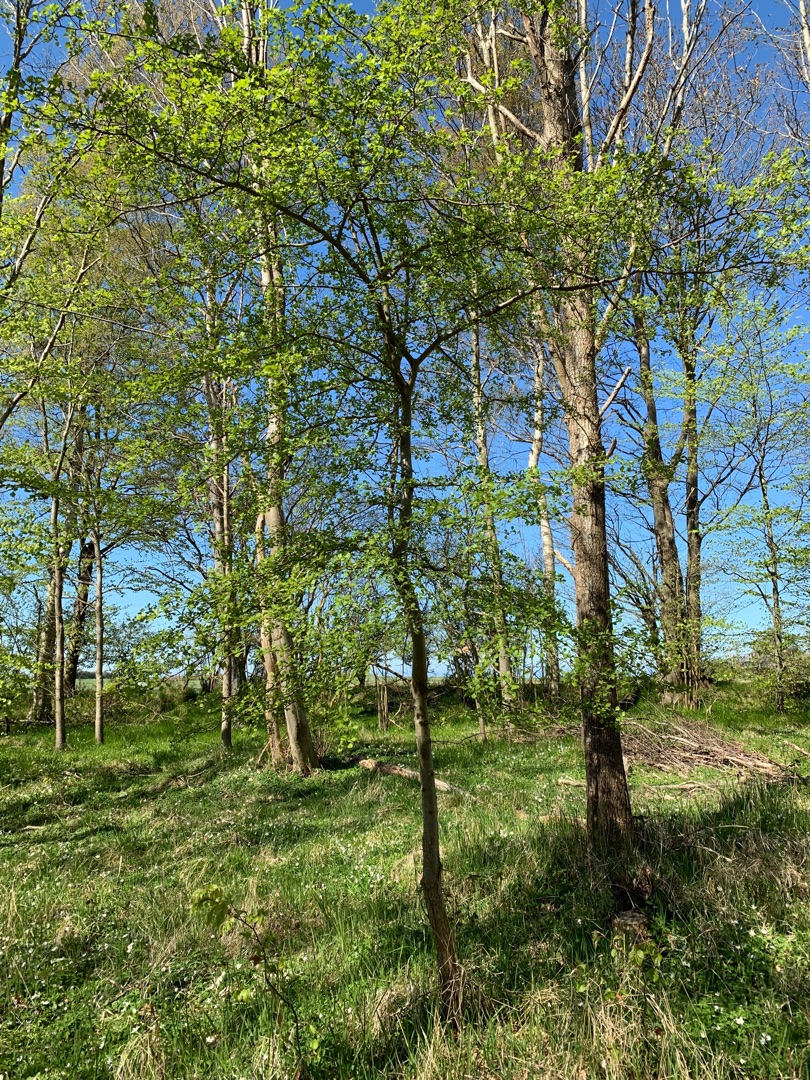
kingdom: Plantae
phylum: Tracheophyta
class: Magnoliopsida
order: Rosales
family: Rosaceae
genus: Crataegus
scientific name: Crataegus monogyna
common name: Engriflet hvidtjørn
